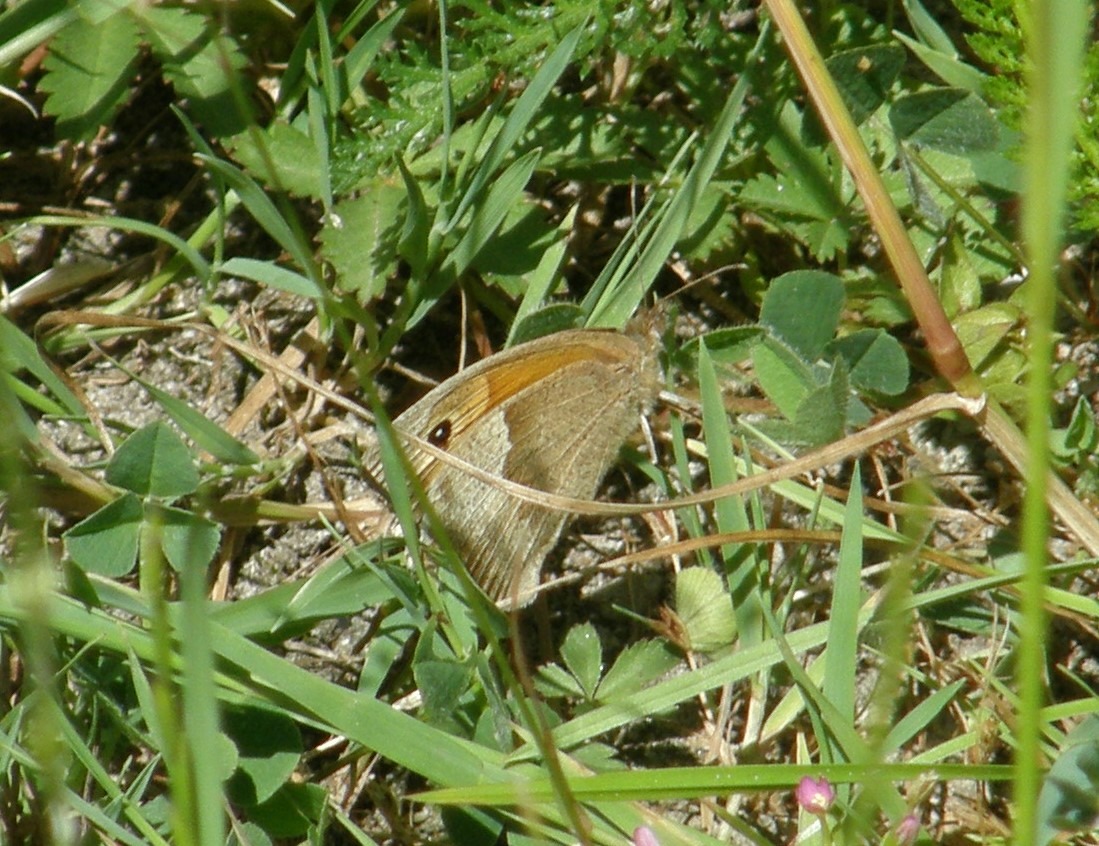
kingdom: Animalia
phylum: Arthropoda
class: Insecta
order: Lepidoptera
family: Nymphalidae
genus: Maniola
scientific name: Maniola jurtina
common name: Græsrandøje
